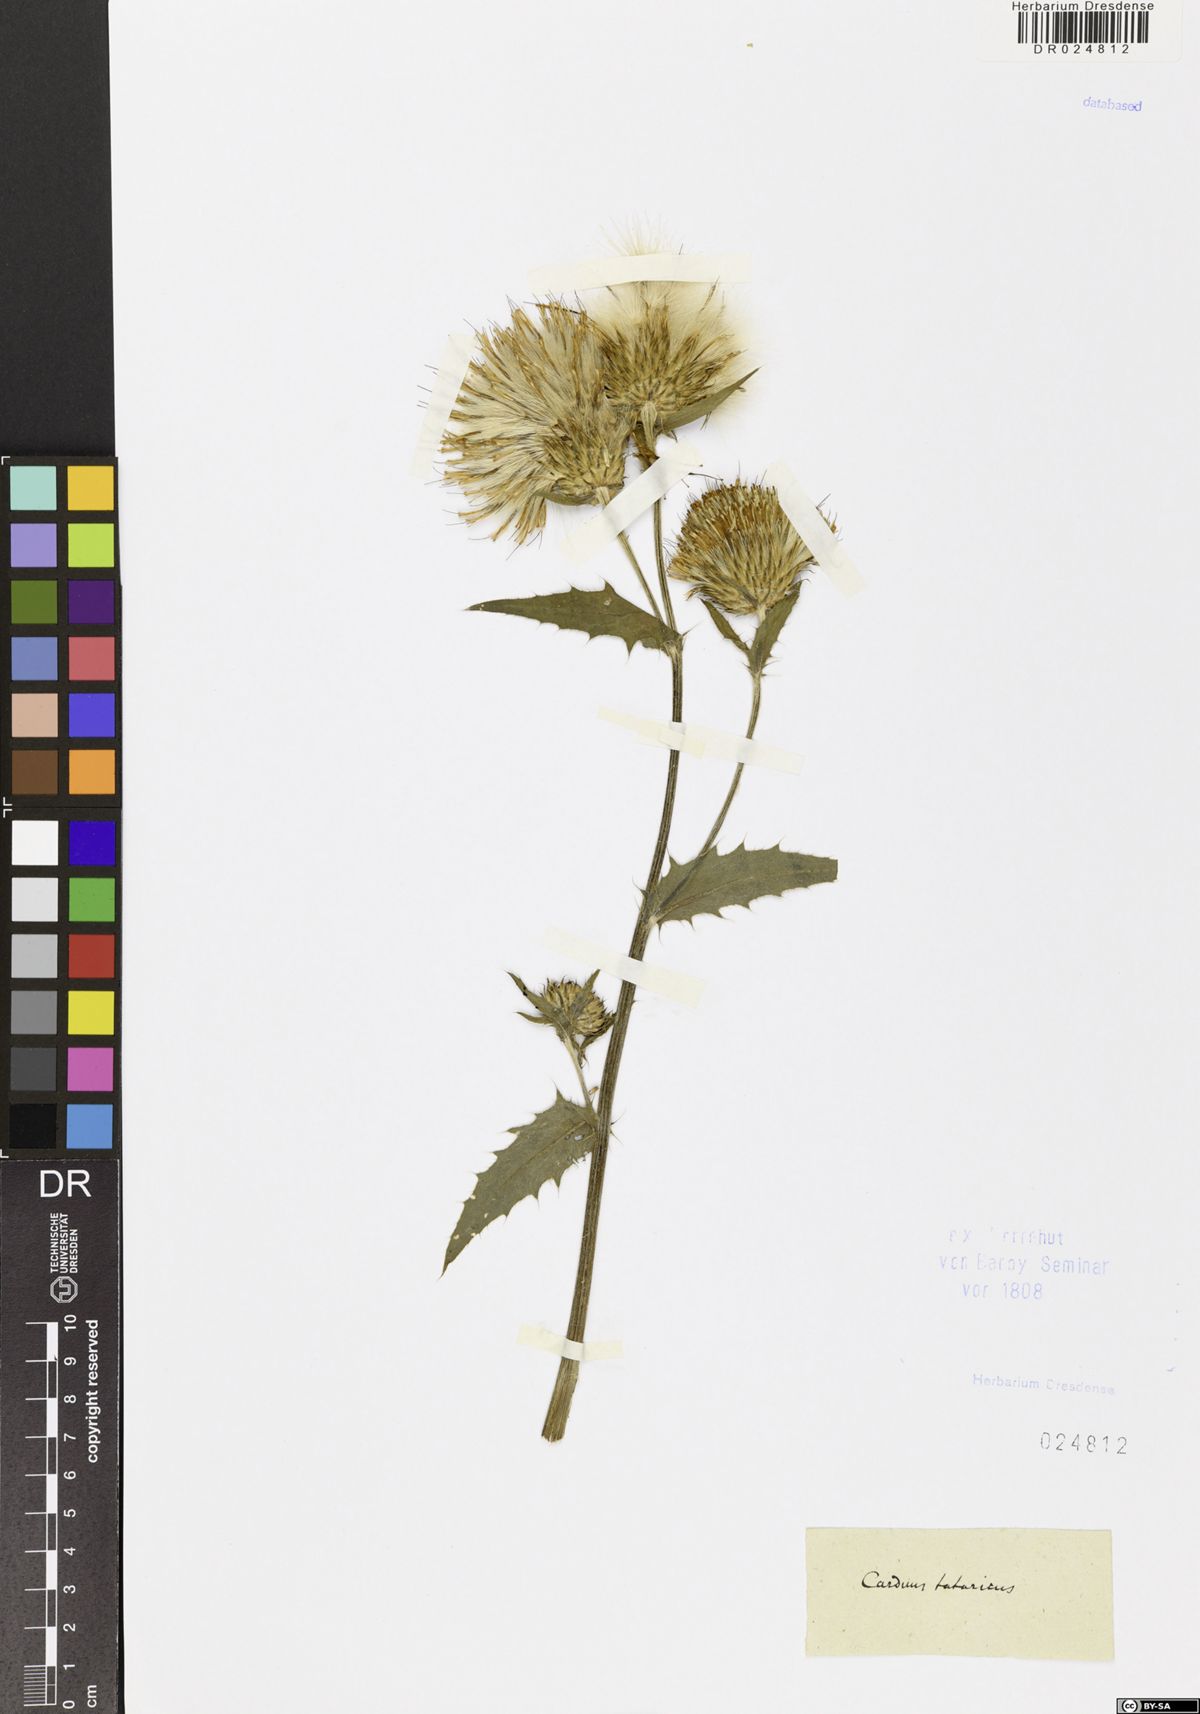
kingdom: Plantae
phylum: Tracheophyta
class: Magnoliopsida
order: Asterales
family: Asteraceae
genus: Cirsium
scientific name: Cirsium oleraceum
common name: Cabbage thistle
